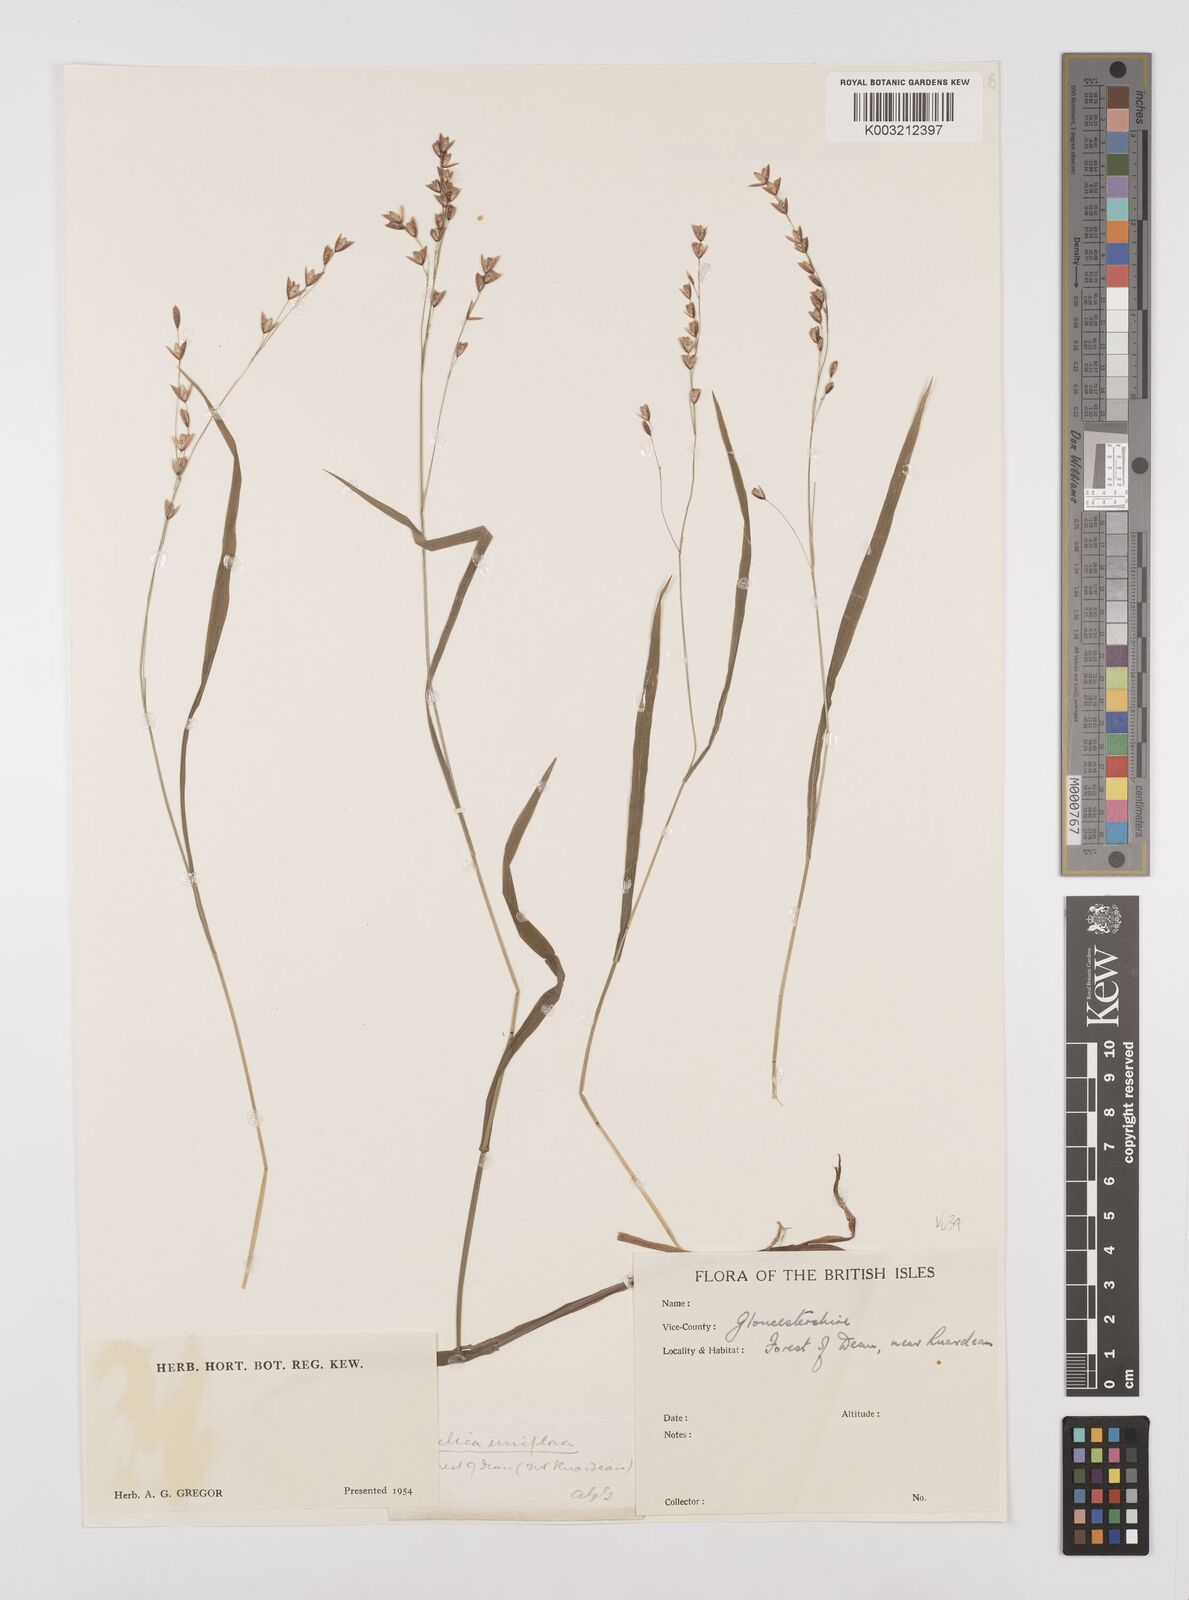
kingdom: Plantae
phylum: Tracheophyta
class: Liliopsida
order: Poales
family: Poaceae
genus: Melica
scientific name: Melica uniflora
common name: Wood melick
